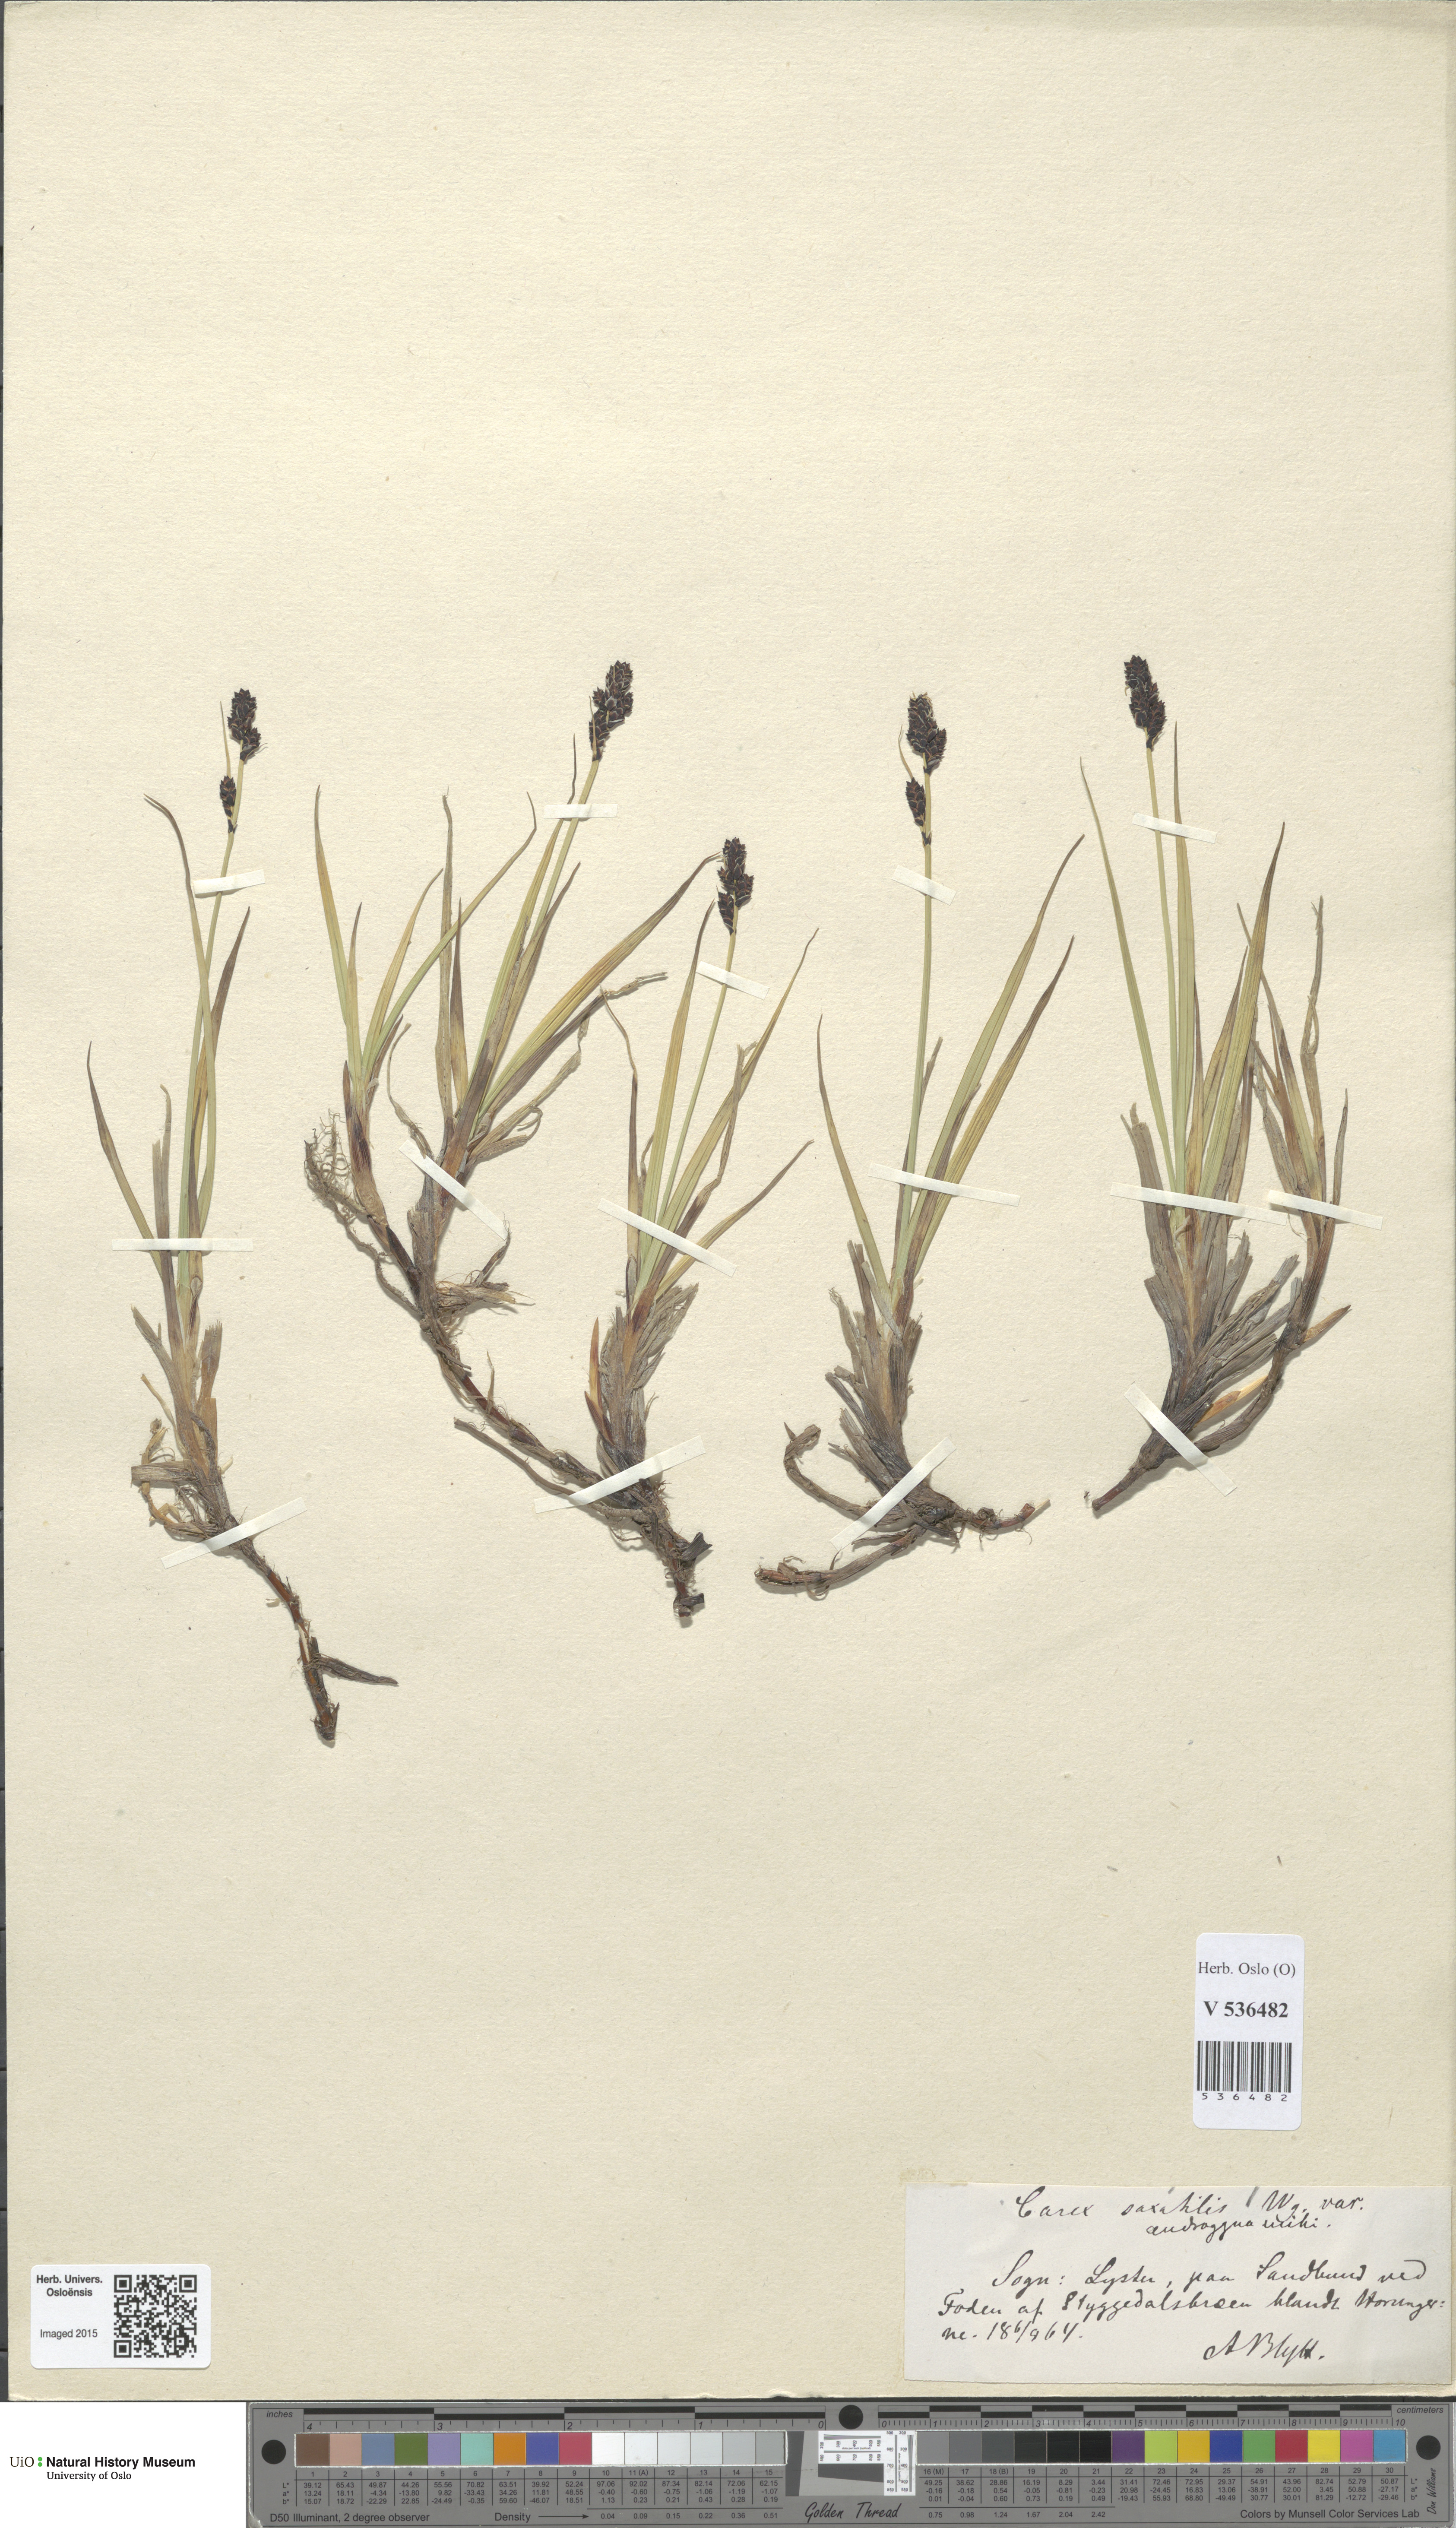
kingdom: Plantae
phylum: Tracheophyta
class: Liliopsida
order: Poales
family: Cyperaceae
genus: Carex
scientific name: Carex bigelowii
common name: Stiff sedge
